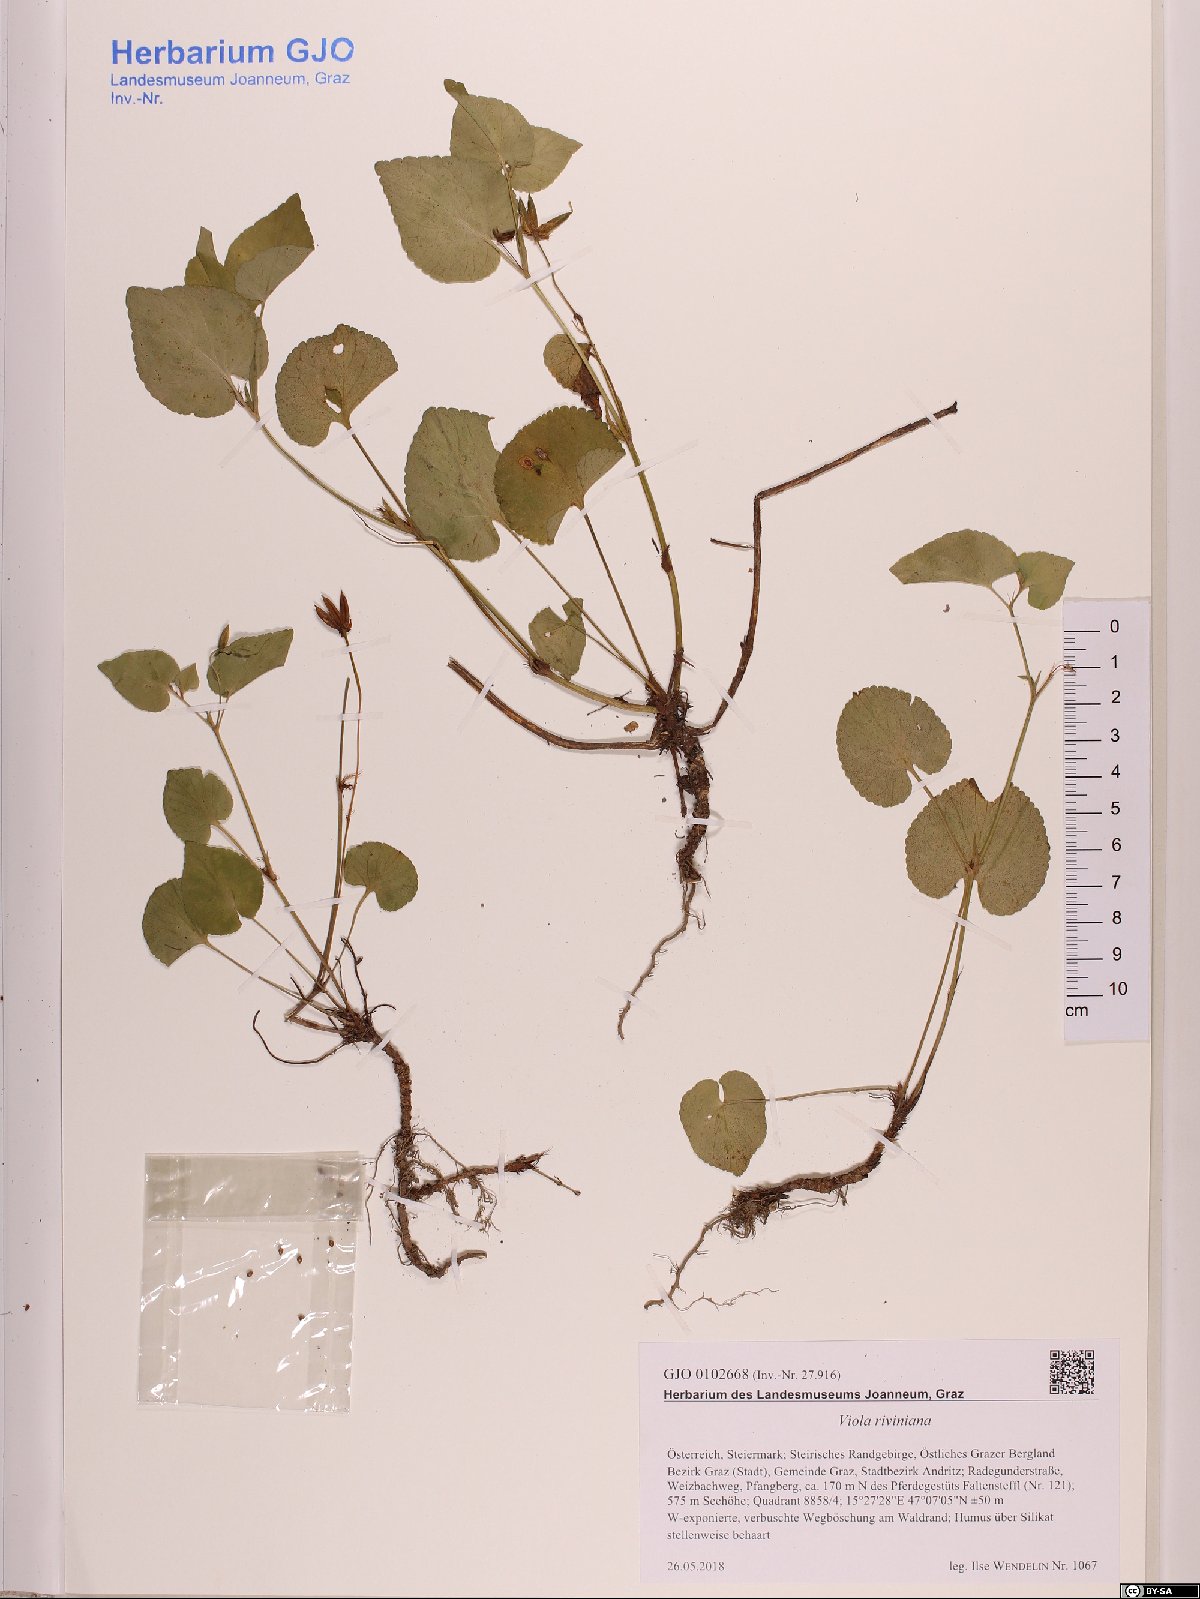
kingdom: Plantae
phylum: Tracheophyta
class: Magnoliopsida
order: Malpighiales
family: Violaceae
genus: Viola
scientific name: Viola riviniana
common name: Common dog-violet
